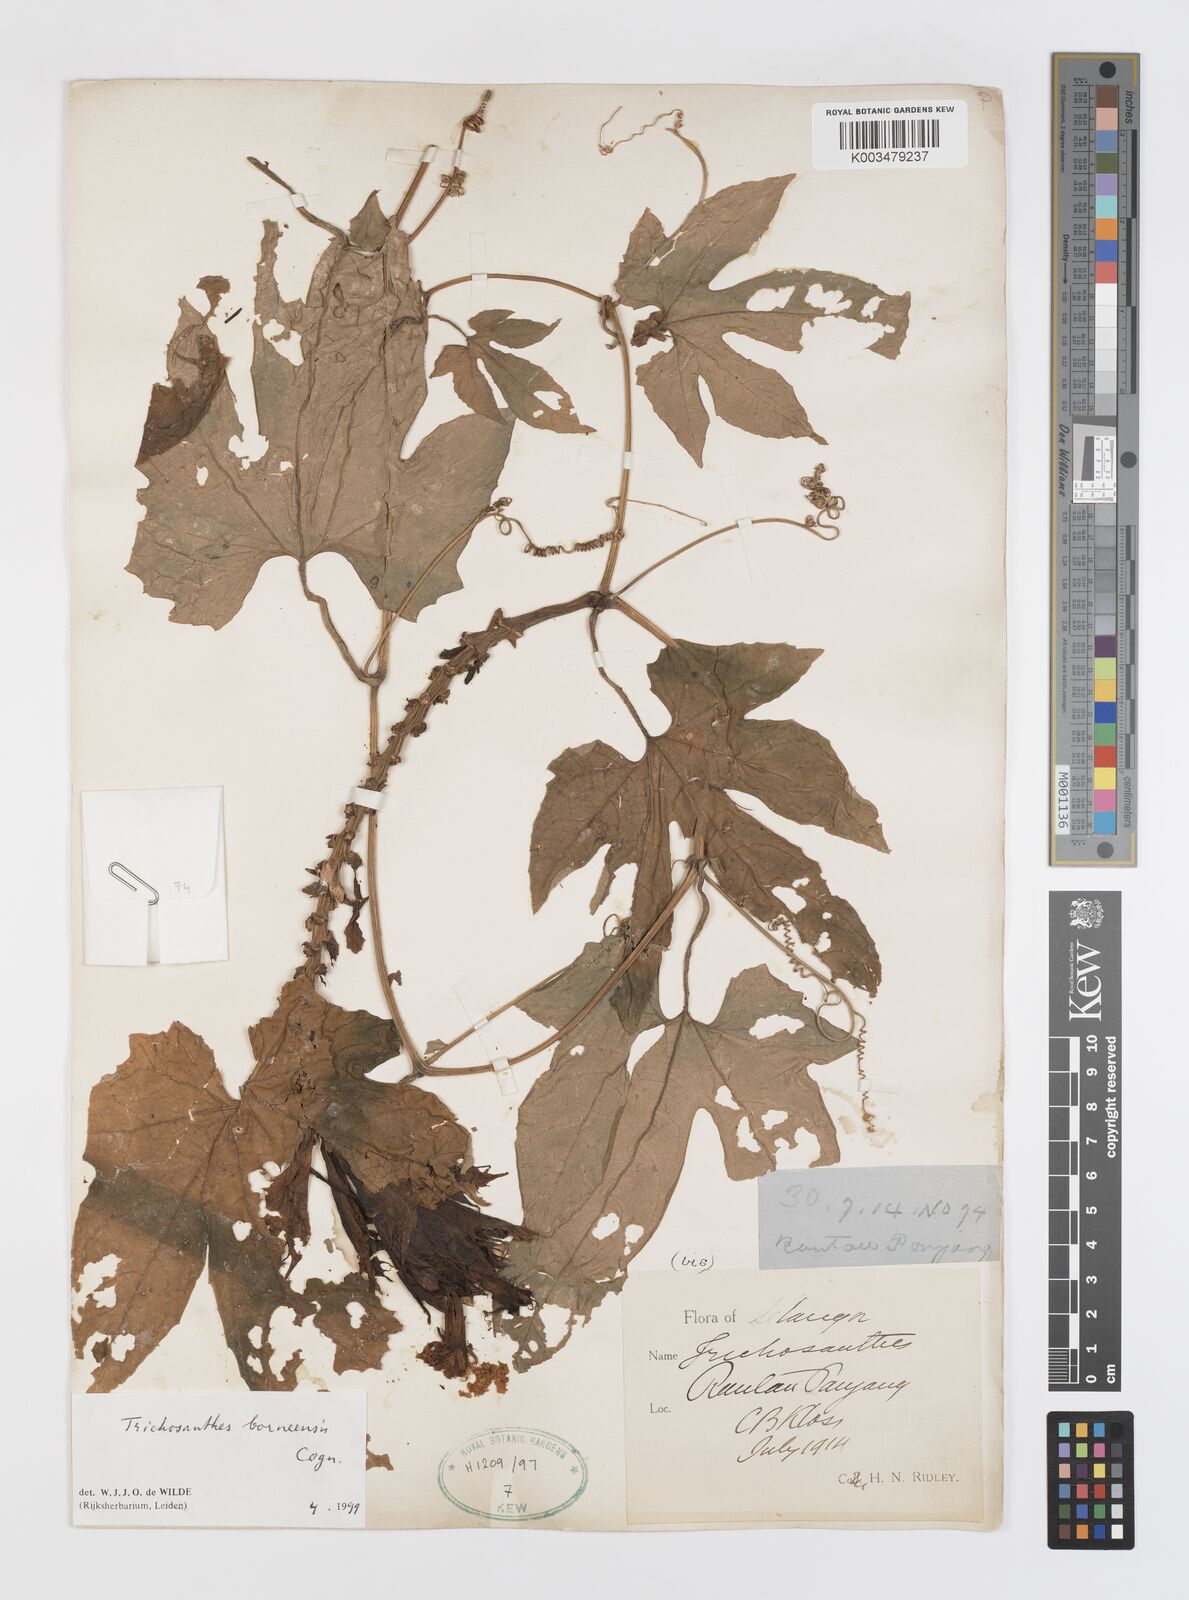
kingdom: Plantae
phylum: Tracheophyta
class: Magnoliopsida
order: Cucurbitales
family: Cucurbitaceae
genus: Trichosanthes
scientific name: Trichosanthes borneensis
